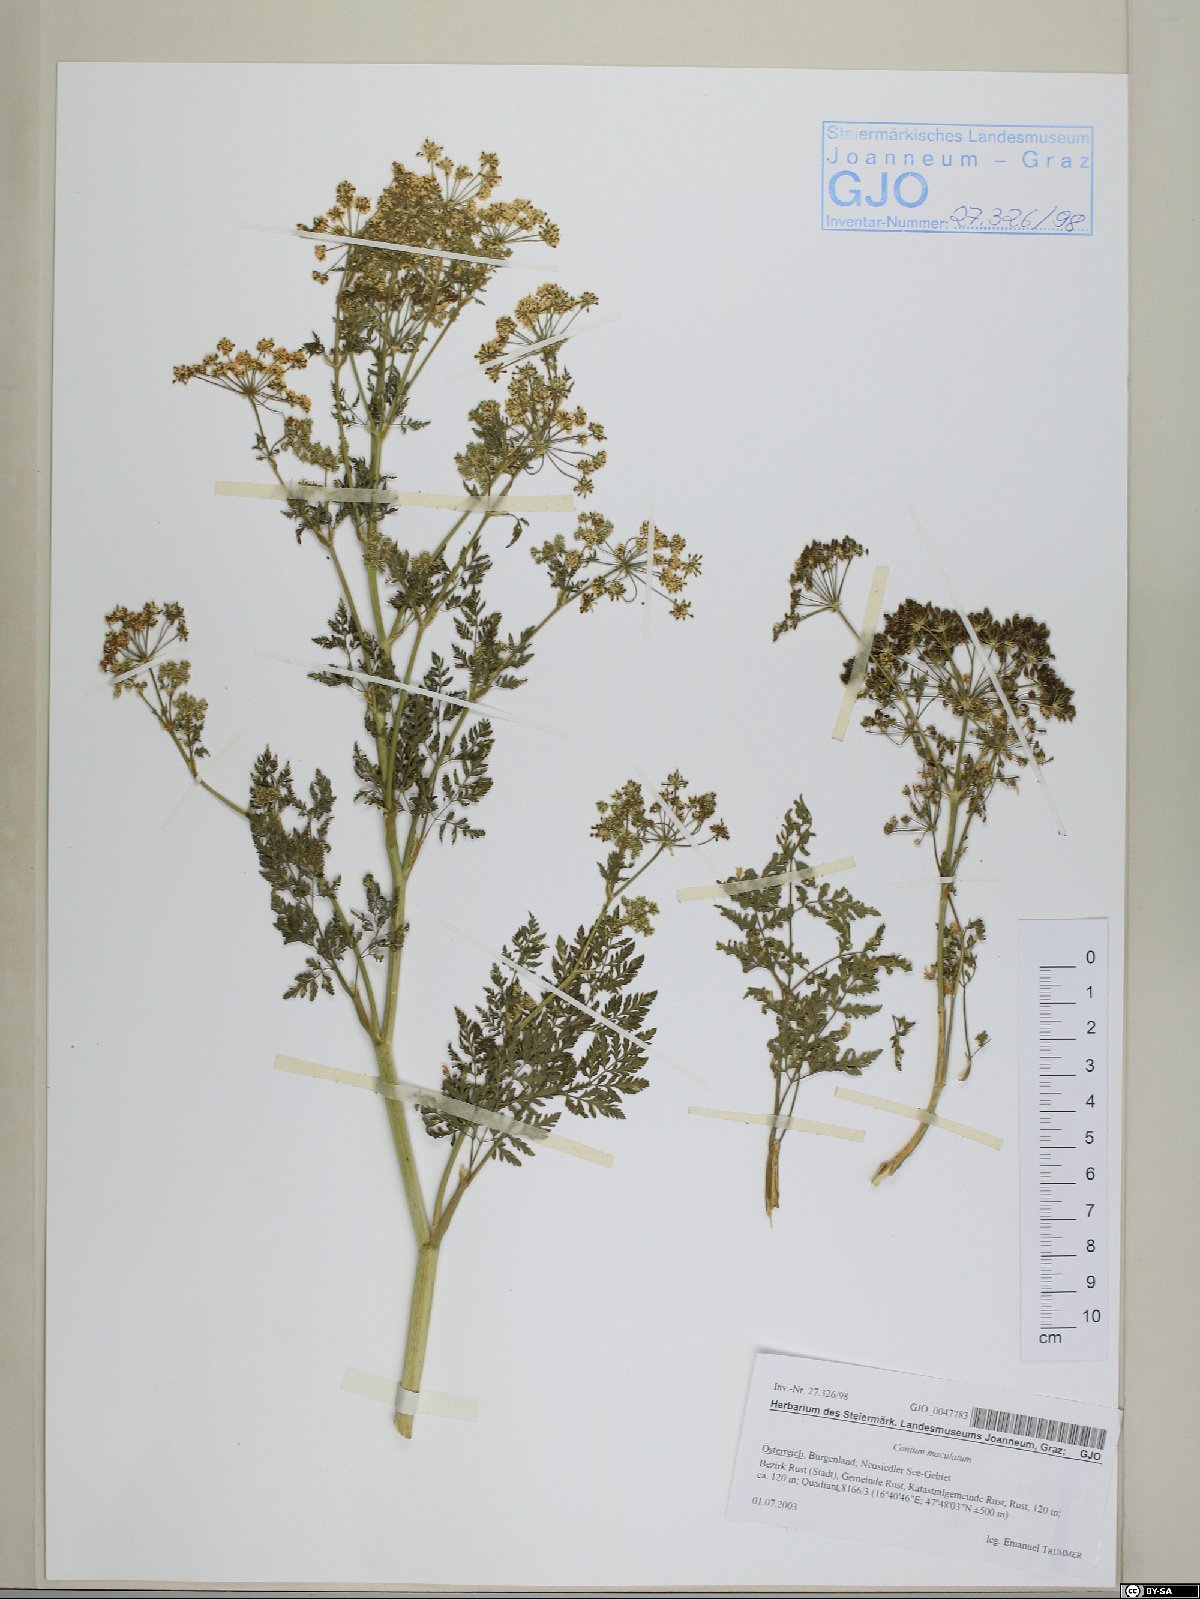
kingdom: Plantae
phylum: Tracheophyta
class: Magnoliopsida
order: Apiales
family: Apiaceae
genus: Conium
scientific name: Conium maculatum
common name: Hemlock
